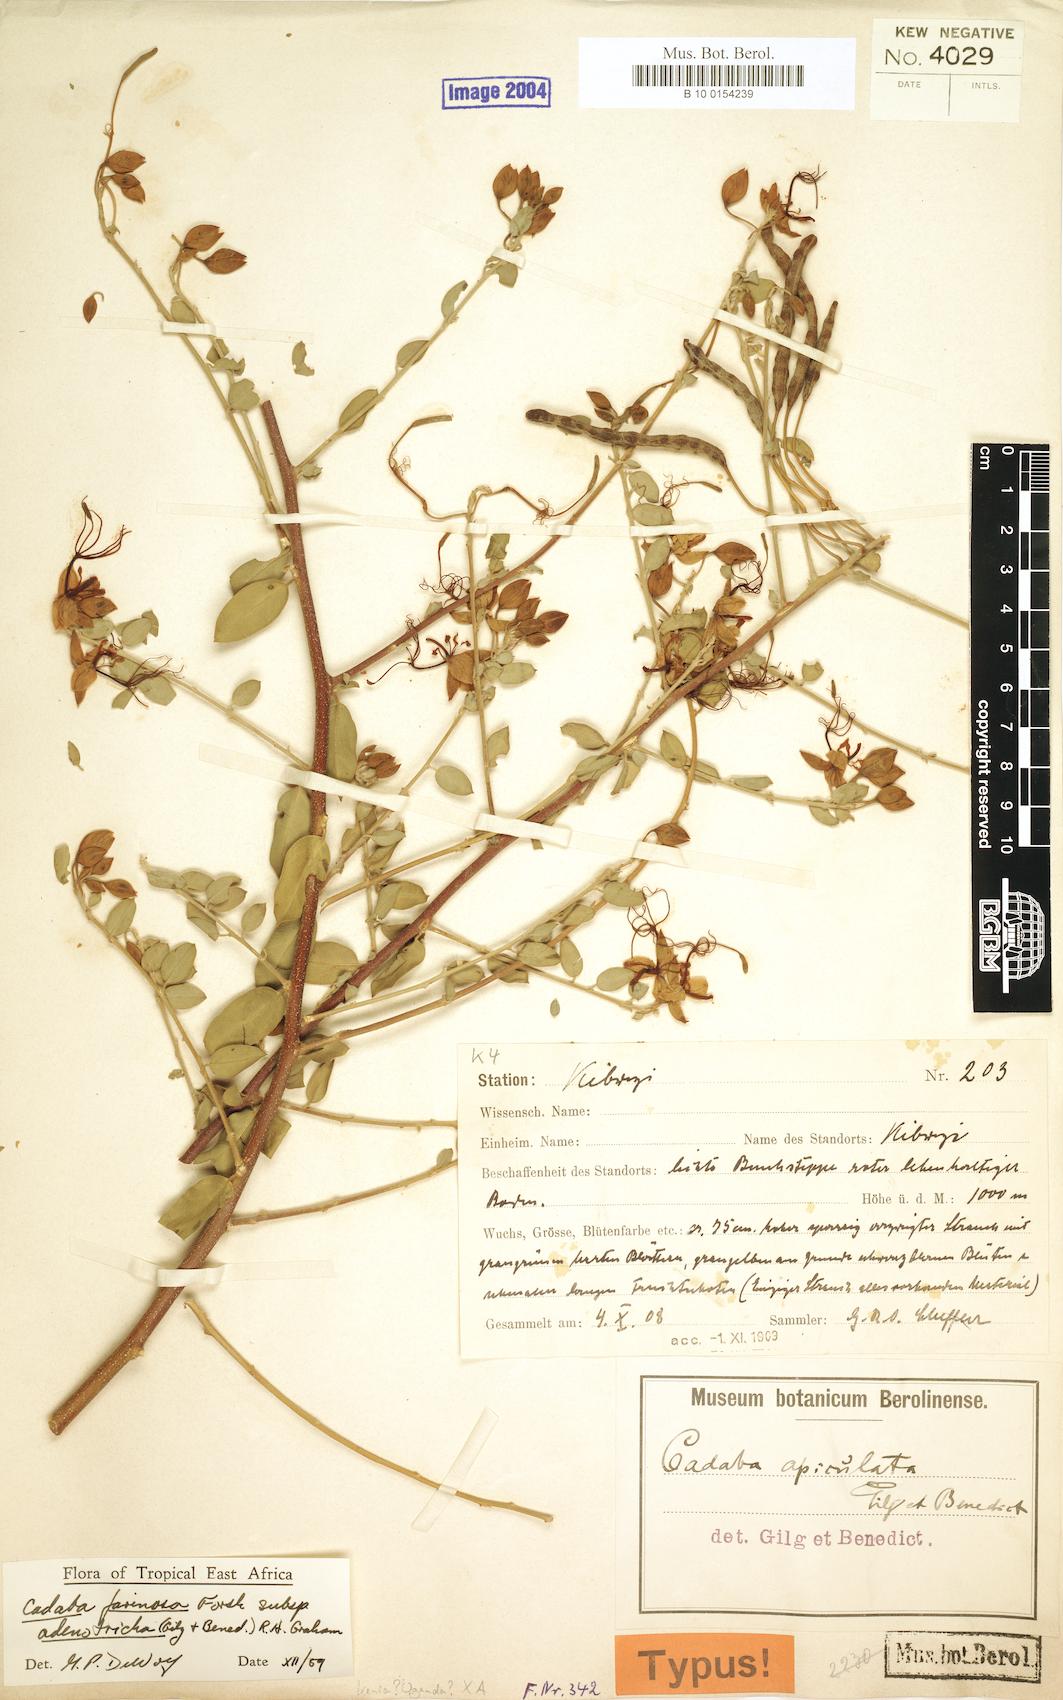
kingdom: Plantae
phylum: Tracheophyta
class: Magnoliopsida
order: Brassicales
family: Capparaceae
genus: Cadaba
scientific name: Cadaba farinosa
